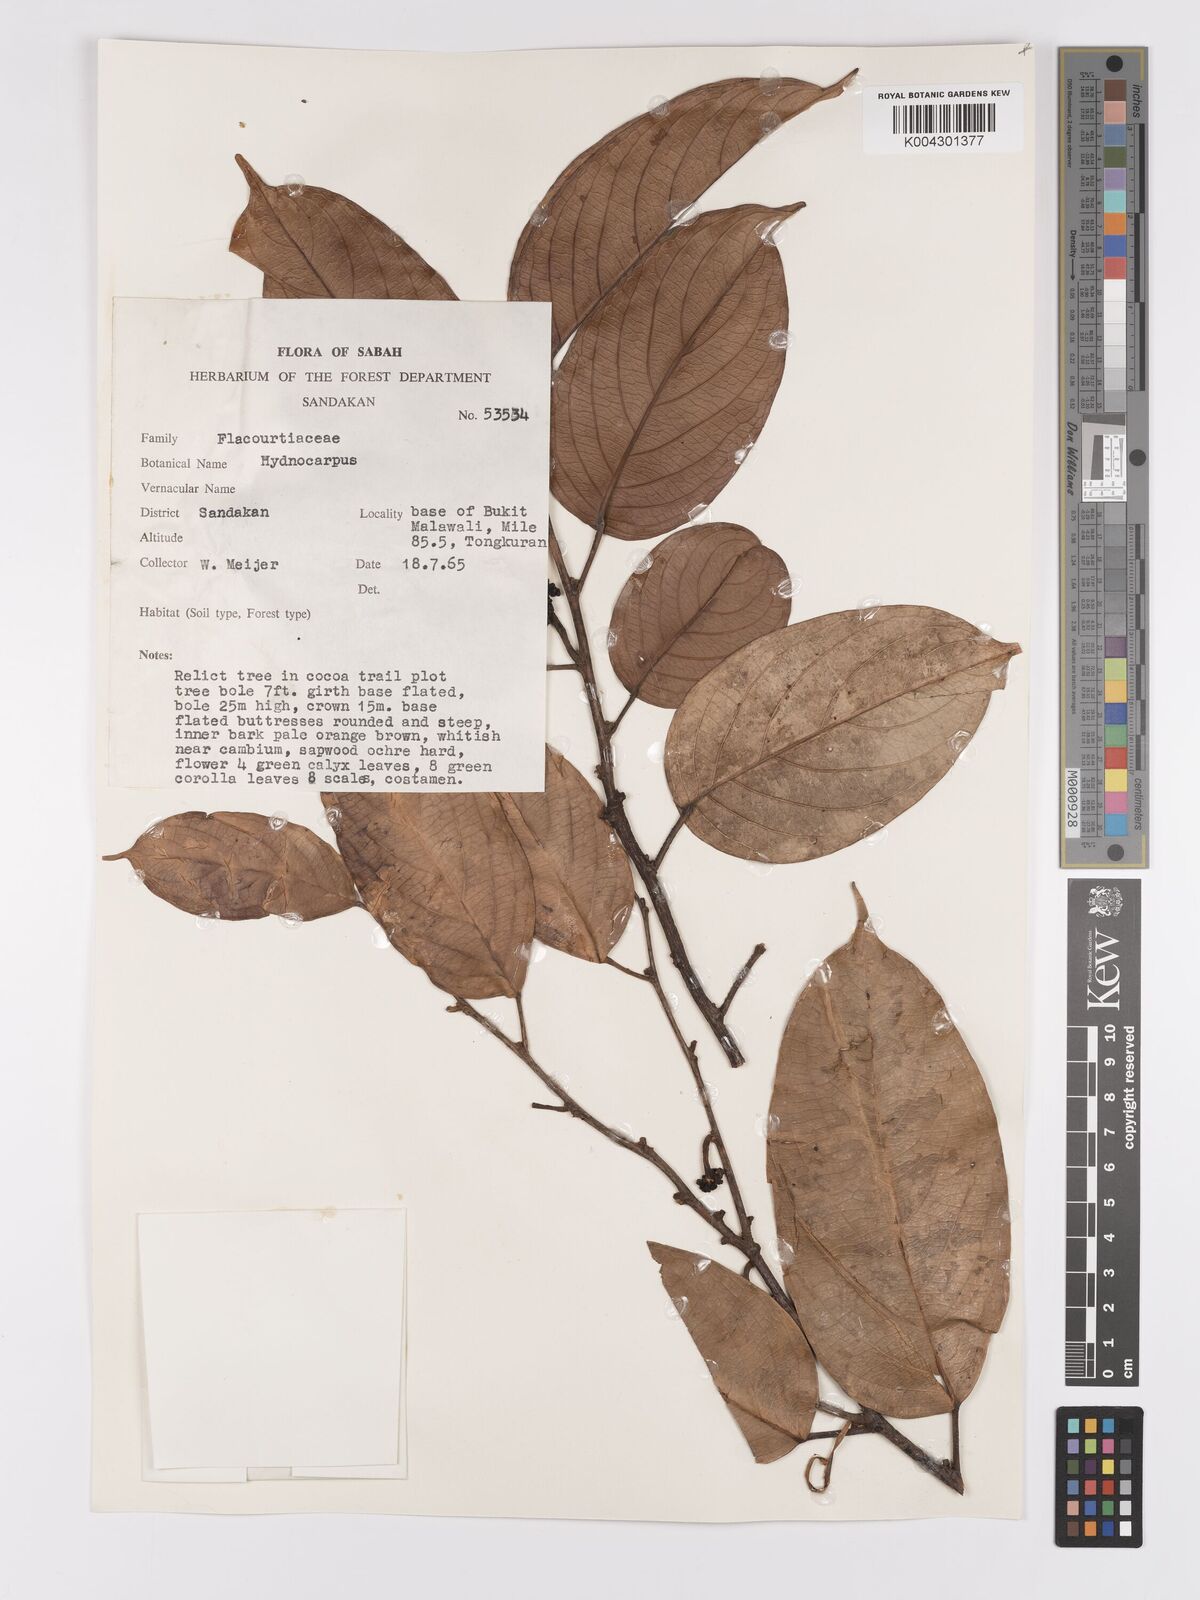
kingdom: Plantae
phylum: Tracheophyta
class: Magnoliopsida
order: Malpighiales
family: Achariaceae
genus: Hydnocarpus
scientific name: Hydnocarpus
